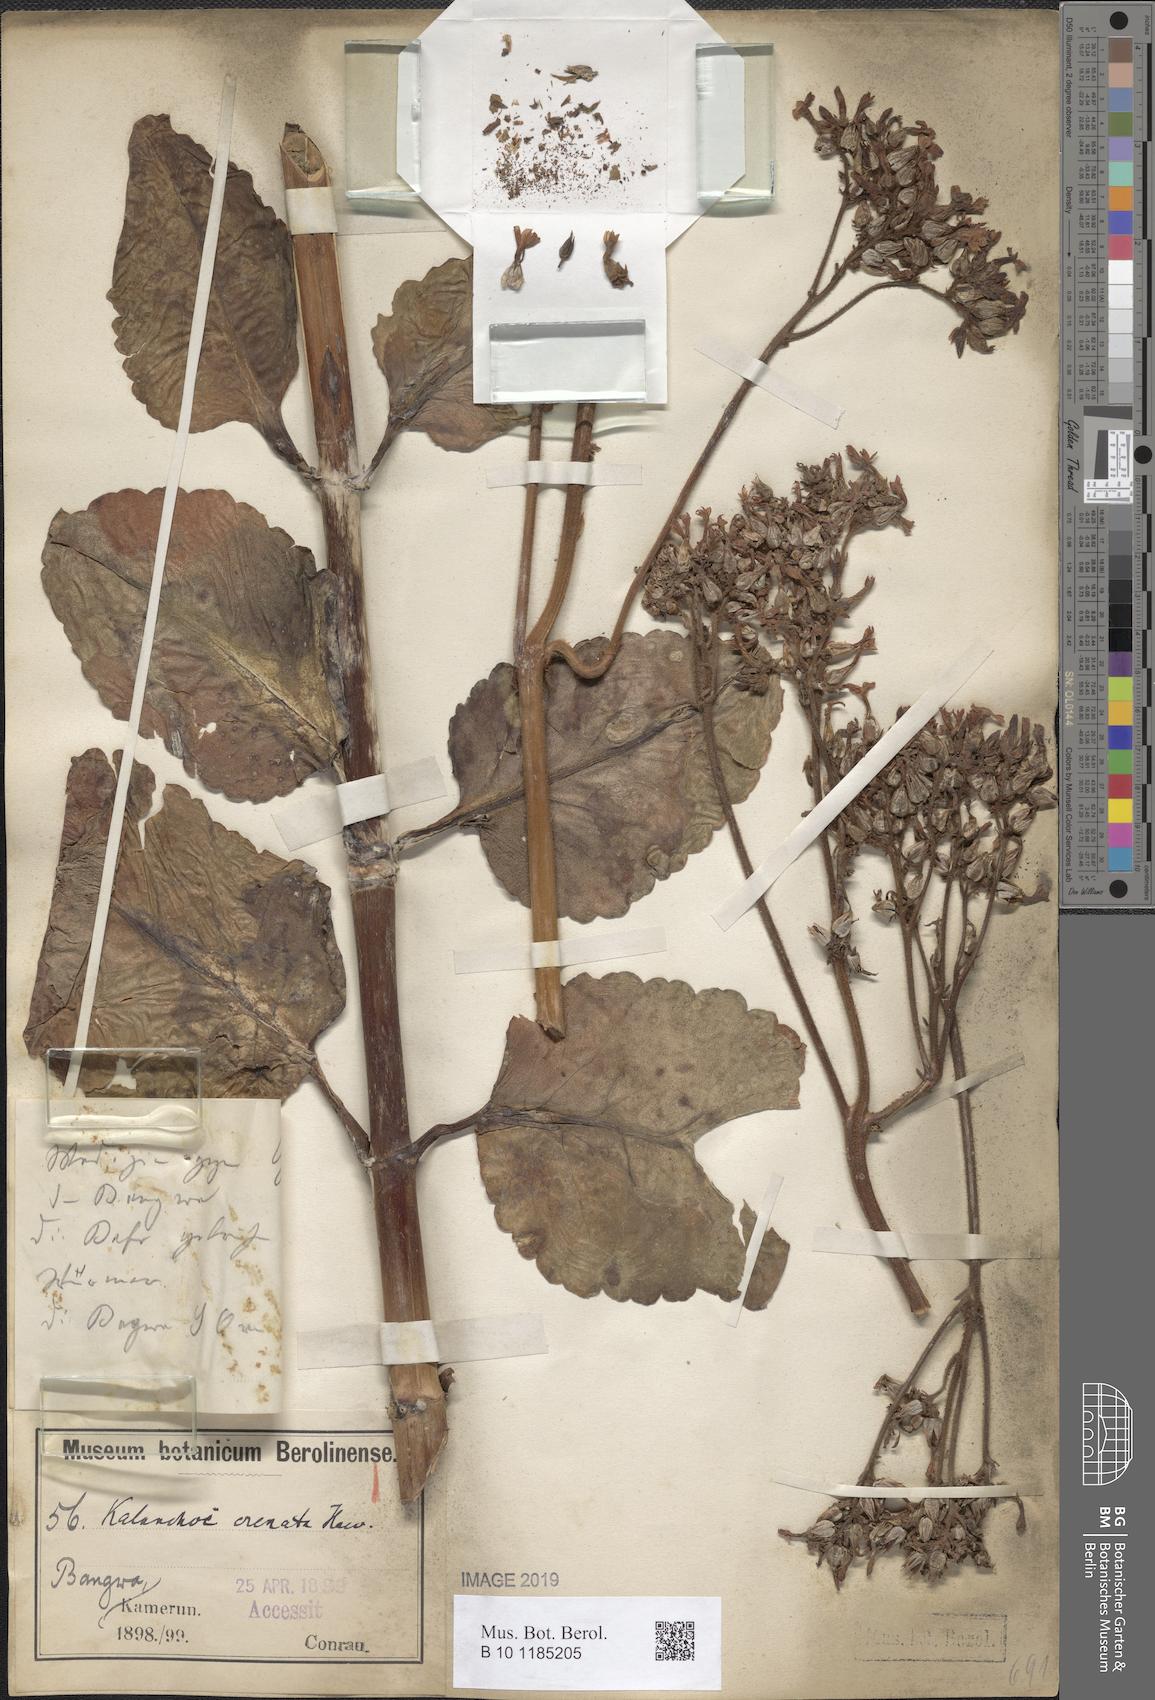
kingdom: Plantae
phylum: Tracheophyta
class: Magnoliopsida
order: Saxifragales
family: Crassulaceae
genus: Kalanchoe
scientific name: Kalanchoe crenata
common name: Neverdie
